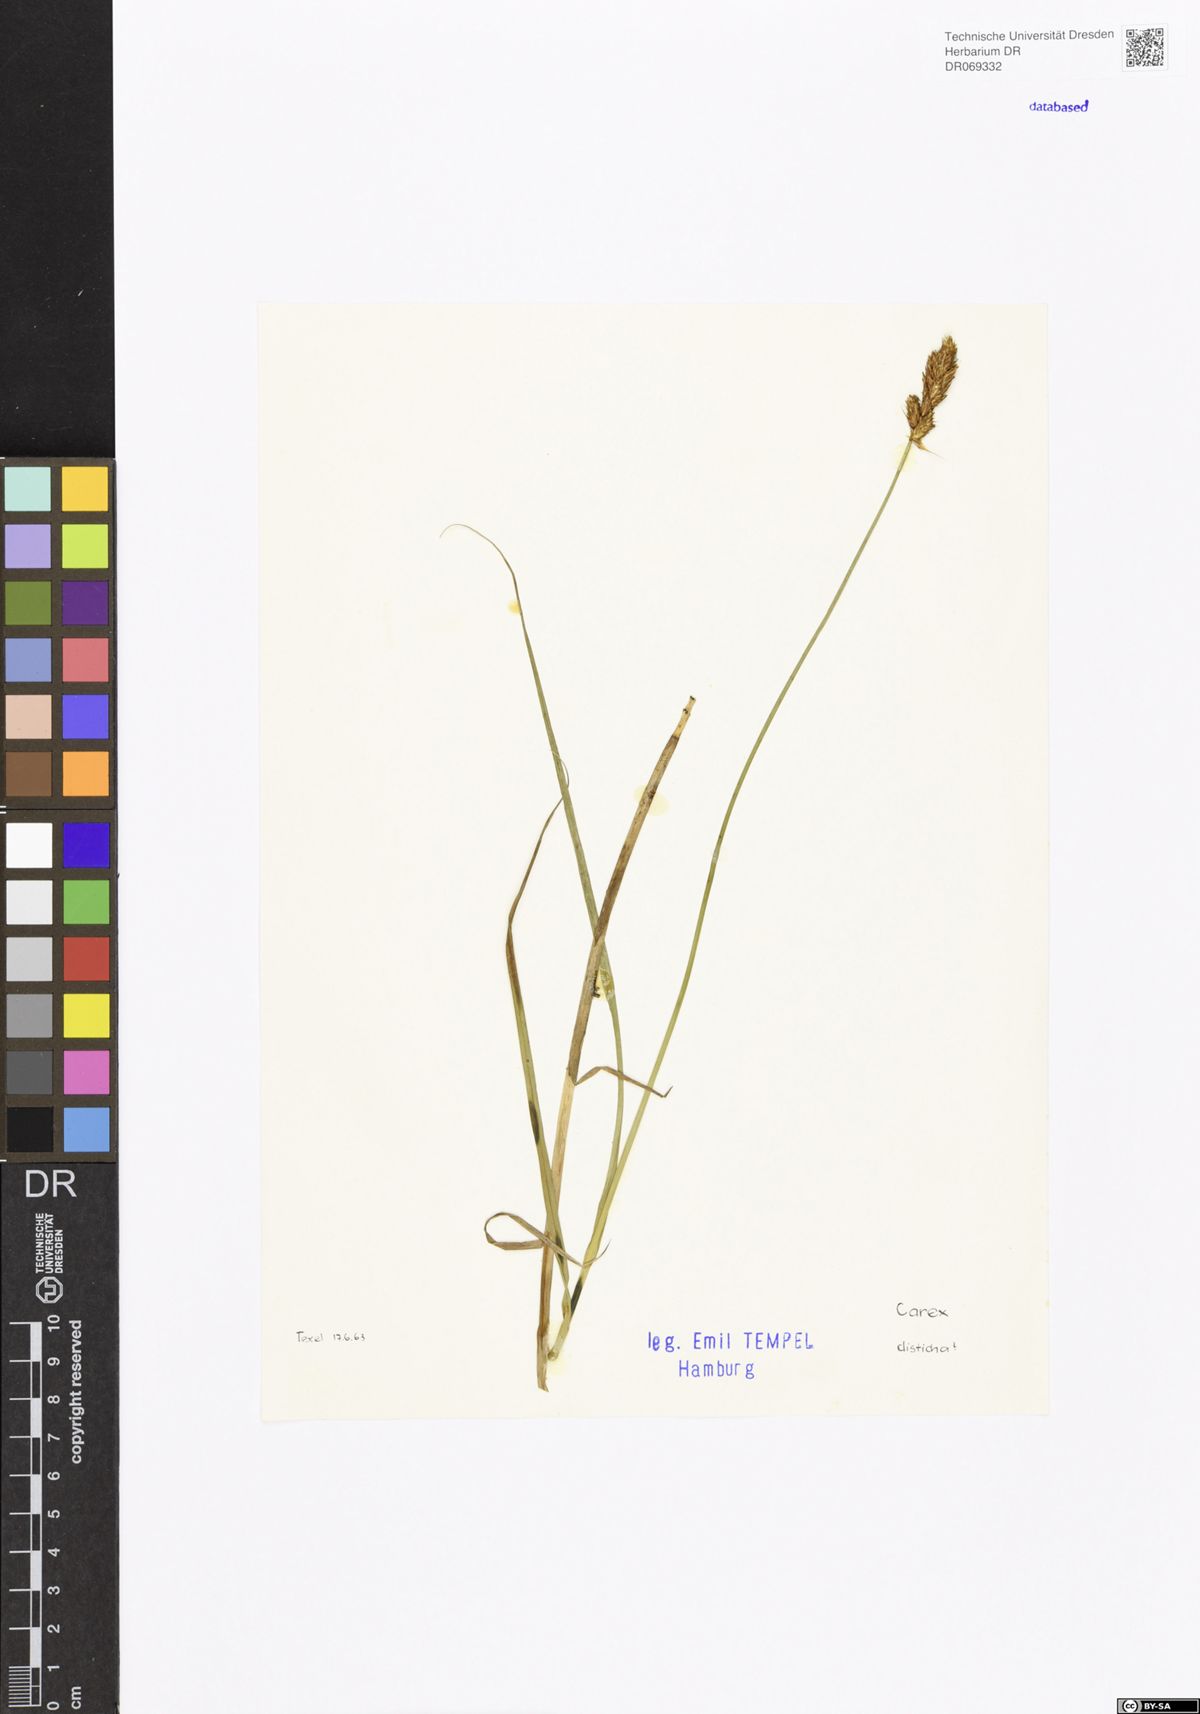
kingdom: Plantae
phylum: Tracheophyta
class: Liliopsida
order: Poales
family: Cyperaceae
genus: Carex
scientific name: Carex disticha
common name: Brown sedge
